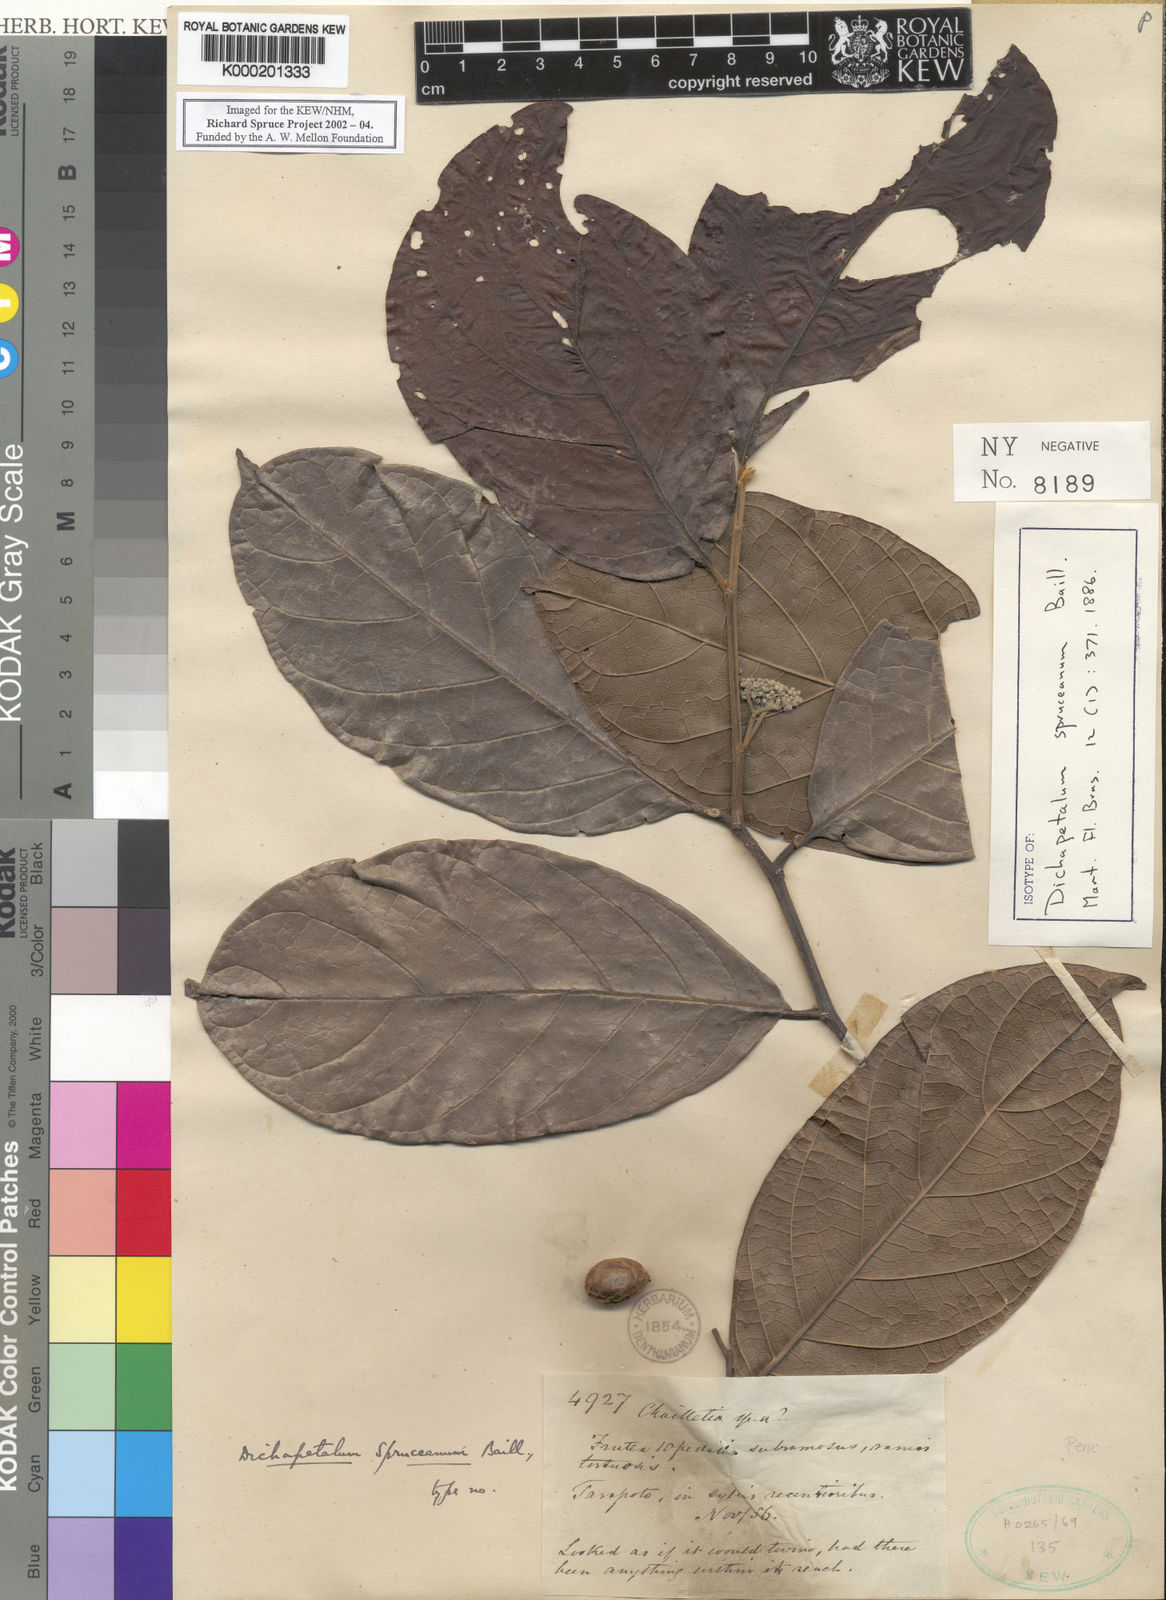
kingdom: Plantae
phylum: Tracheophyta
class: Magnoliopsida
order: Malpighiales
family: Dichapetalaceae
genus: Dichapetalum
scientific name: Dichapetalum spruceanum
